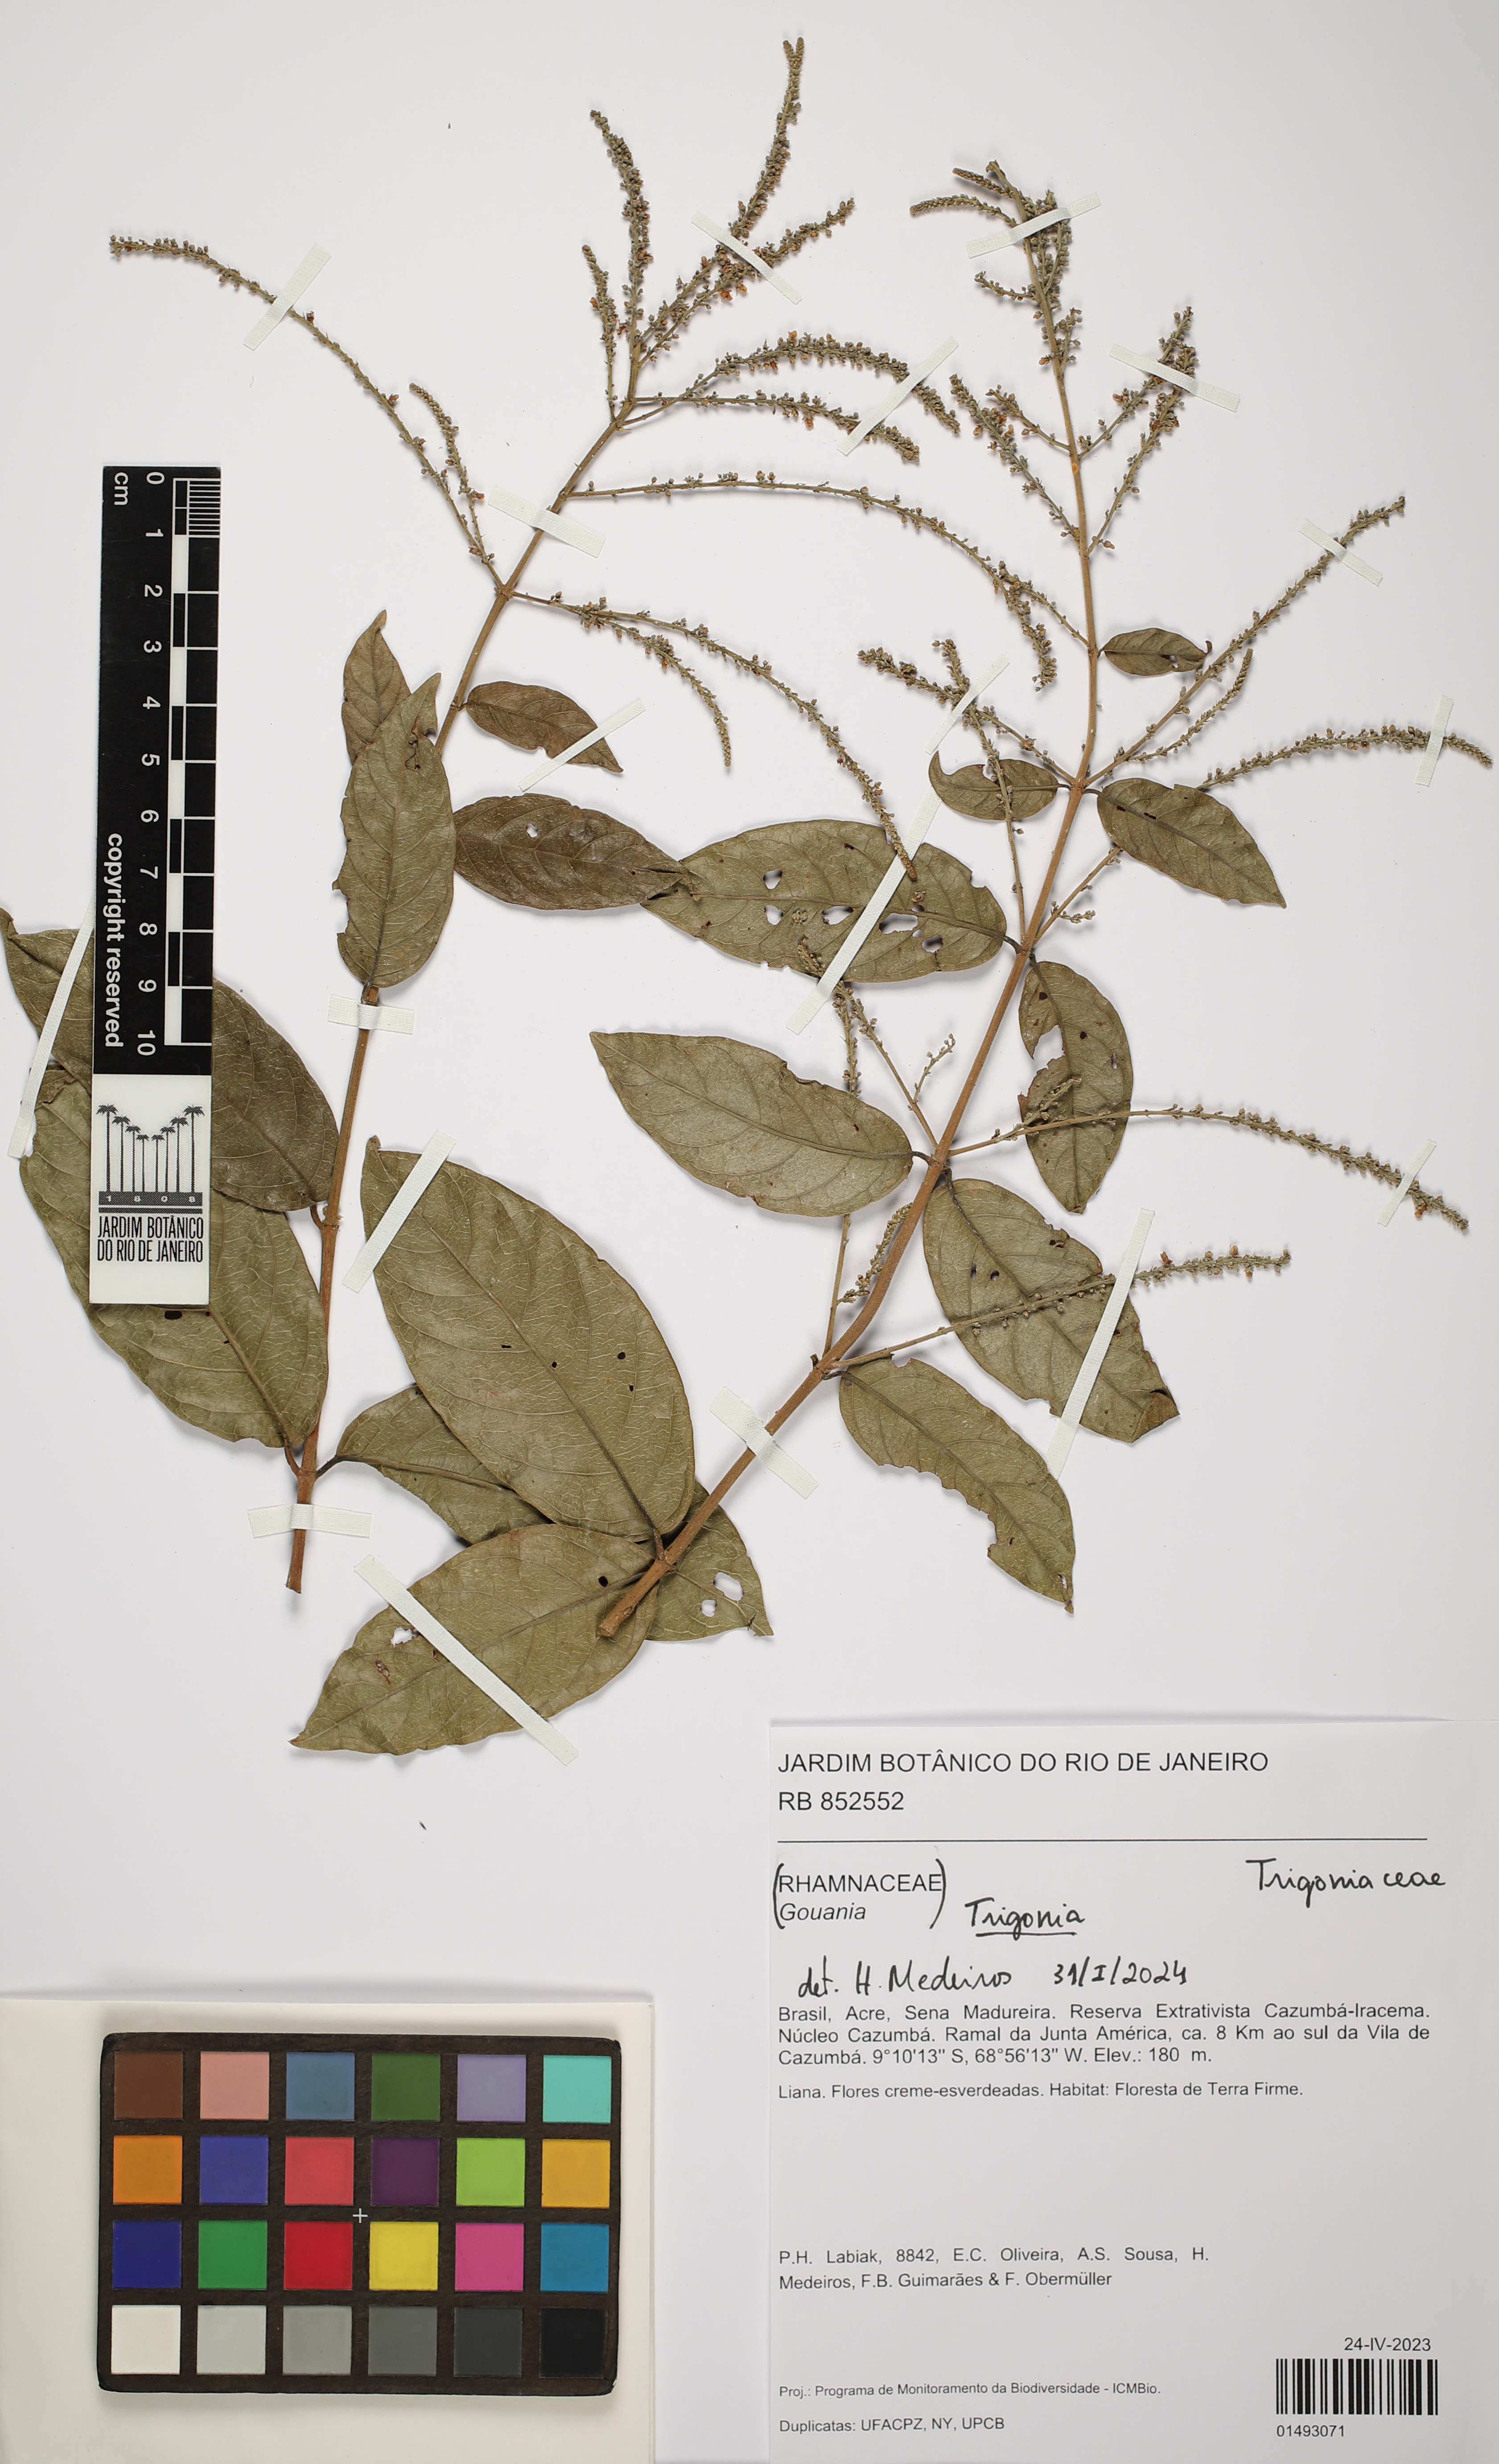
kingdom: Plantae
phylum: Tracheophyta
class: Magnoliopsida
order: Malpighiales
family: Trigoniaceae
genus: Trigonia
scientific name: Trigonia
